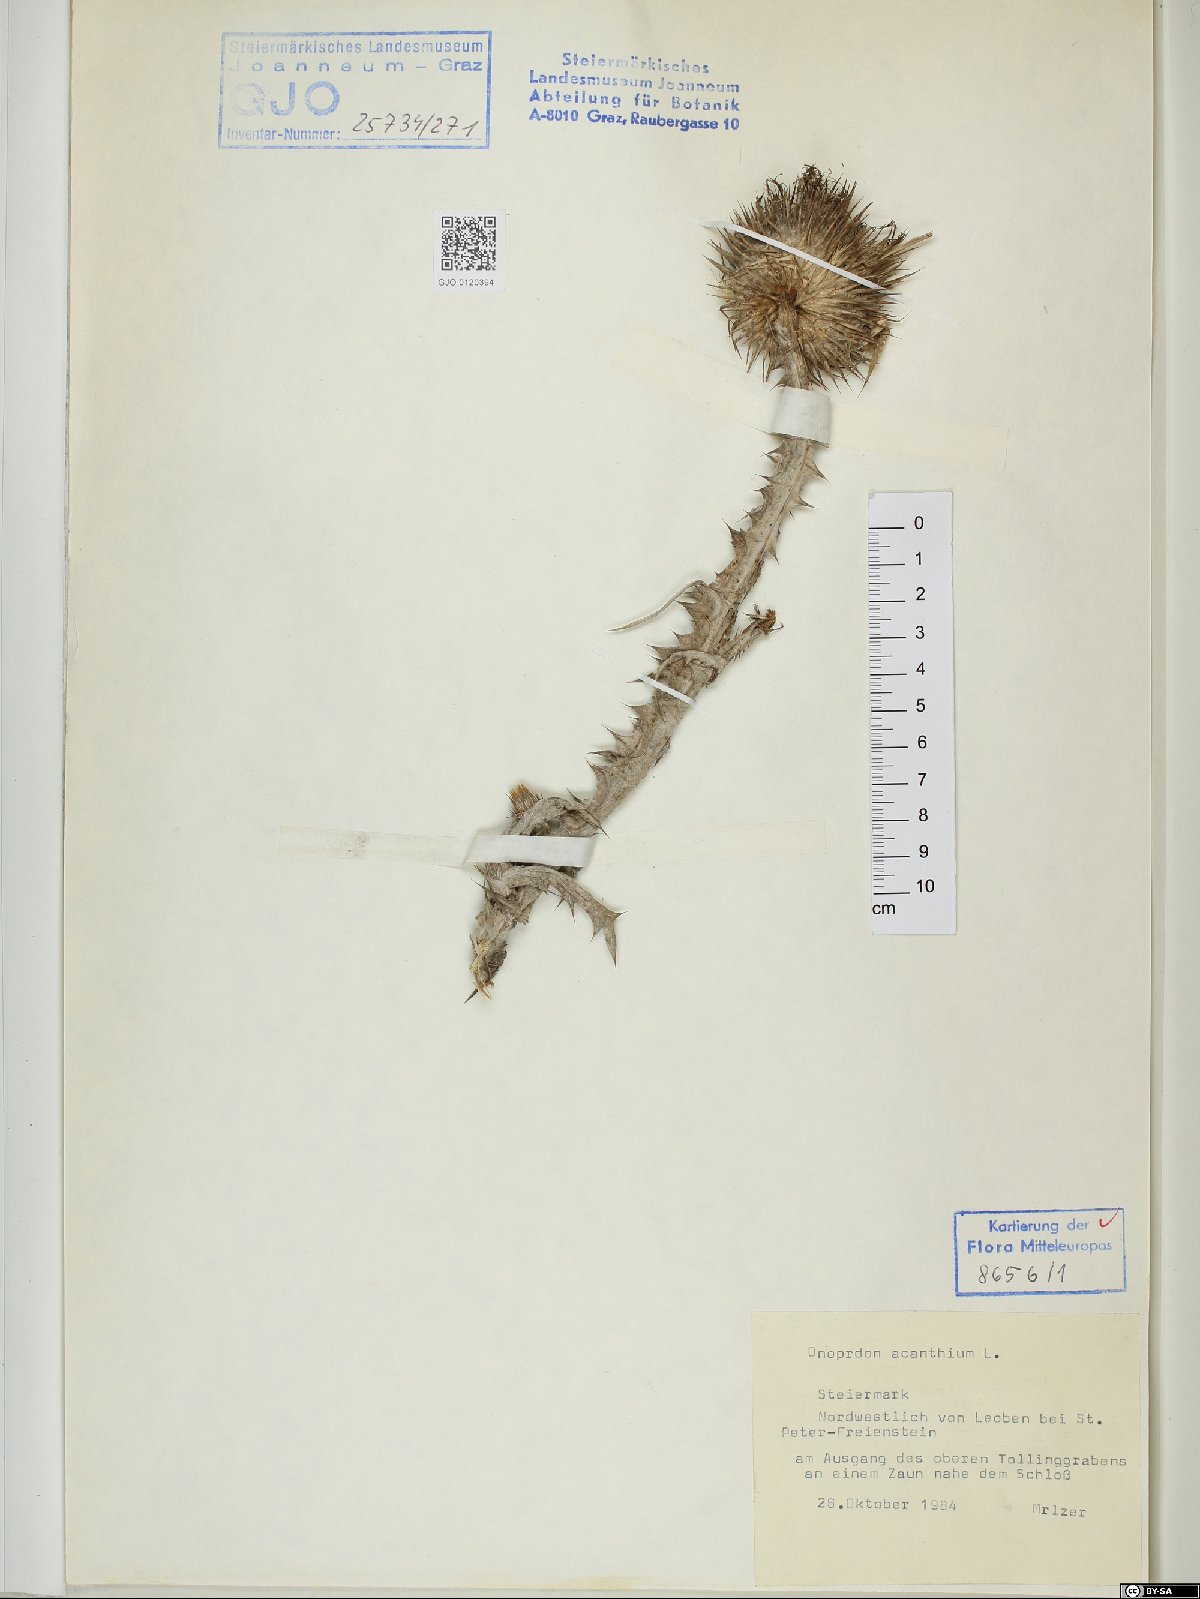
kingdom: Plantae
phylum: Tracheophyta
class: Magnoliopsida
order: Asterales
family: Asteraceae
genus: Onopordum
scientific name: Onopordum acanthium
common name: Scotch thistle
